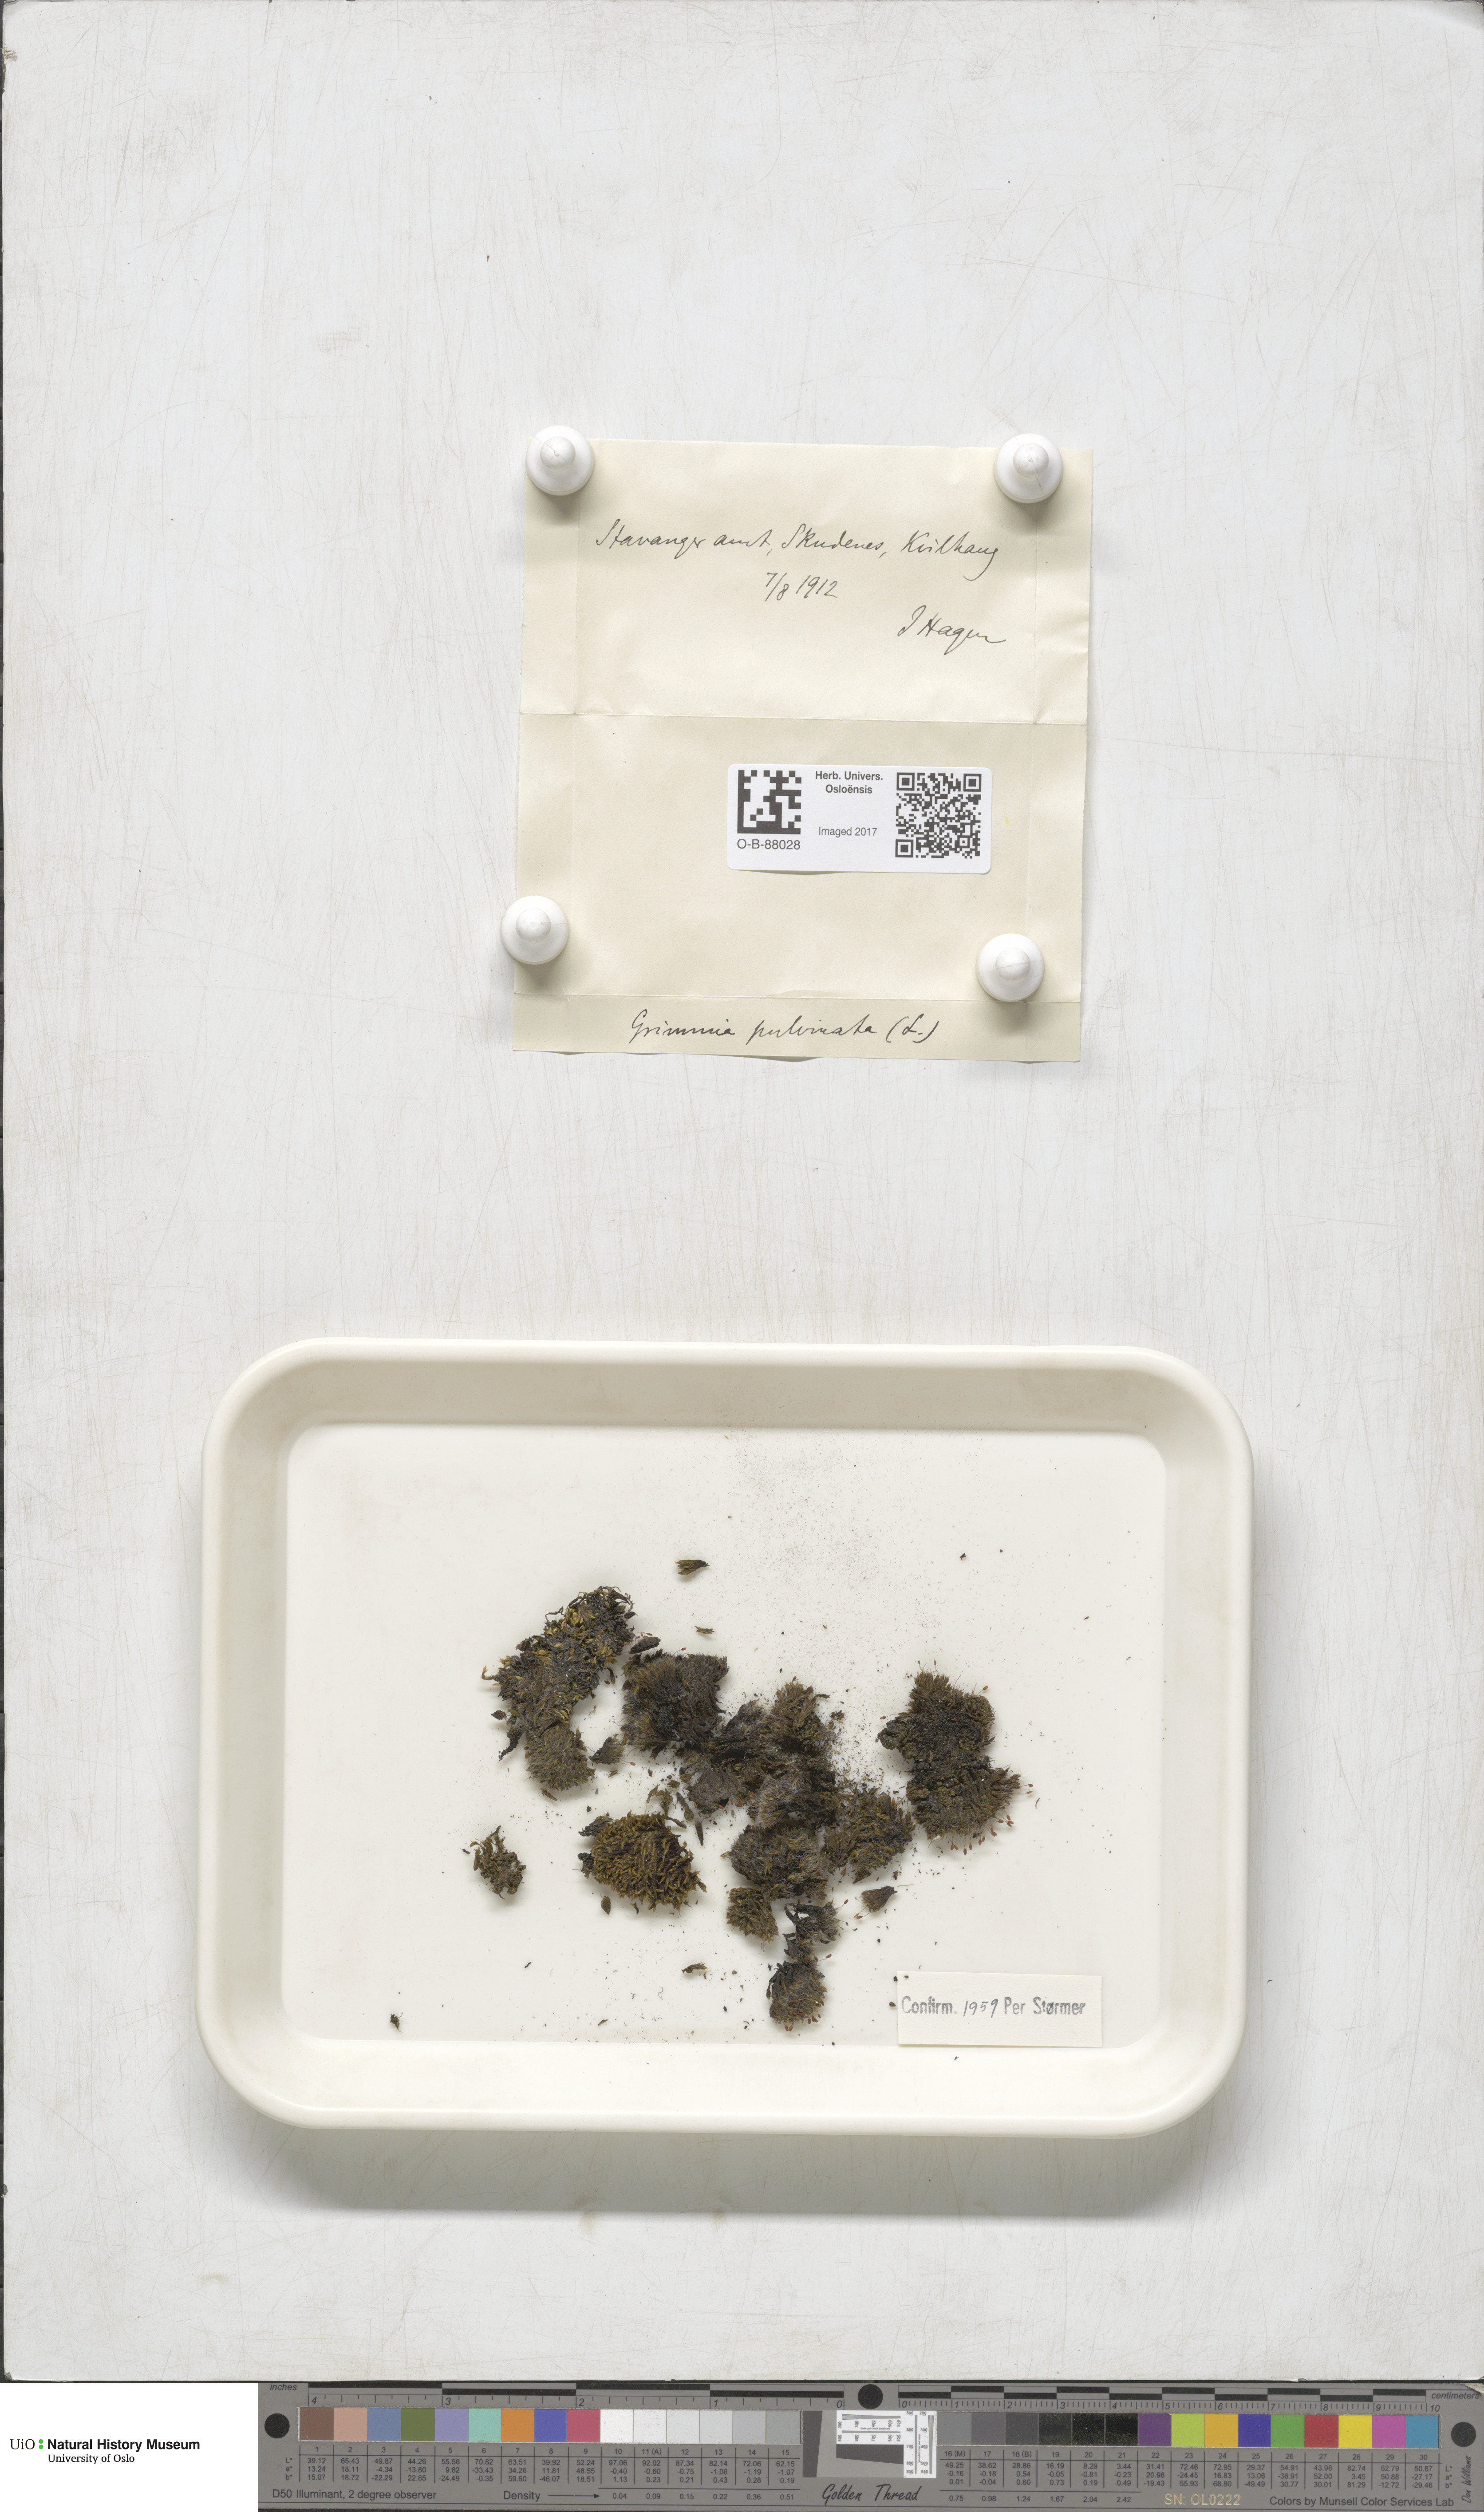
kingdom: Plantae
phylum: Bryophyta
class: Bryopsida
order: Grimmiales
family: Grimmiaceae
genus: Grimmia
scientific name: Grimmia pulvinata
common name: Grey-cushioned grimmia
